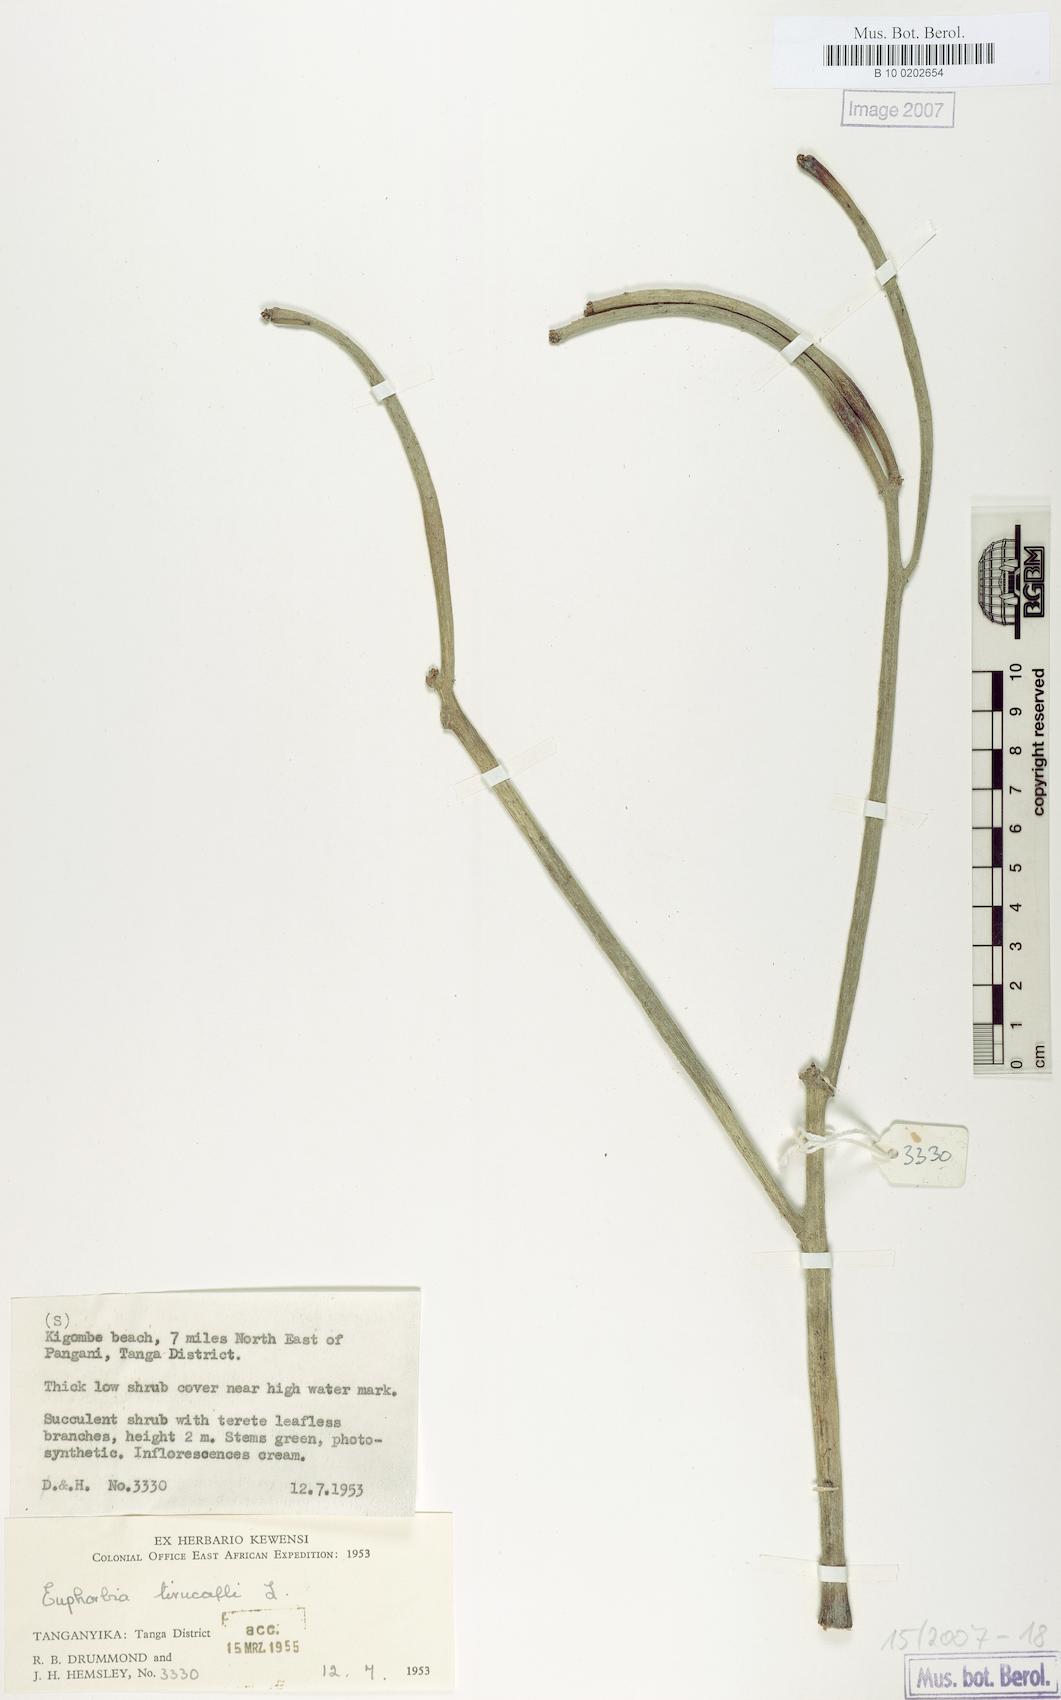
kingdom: Plantae
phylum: Tracheophyta
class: Magnoliopsida
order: Malpighiales
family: Euphorbiaceae
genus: Euphorbia
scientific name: Euphorbia tirucalli
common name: Indiantree spurge
